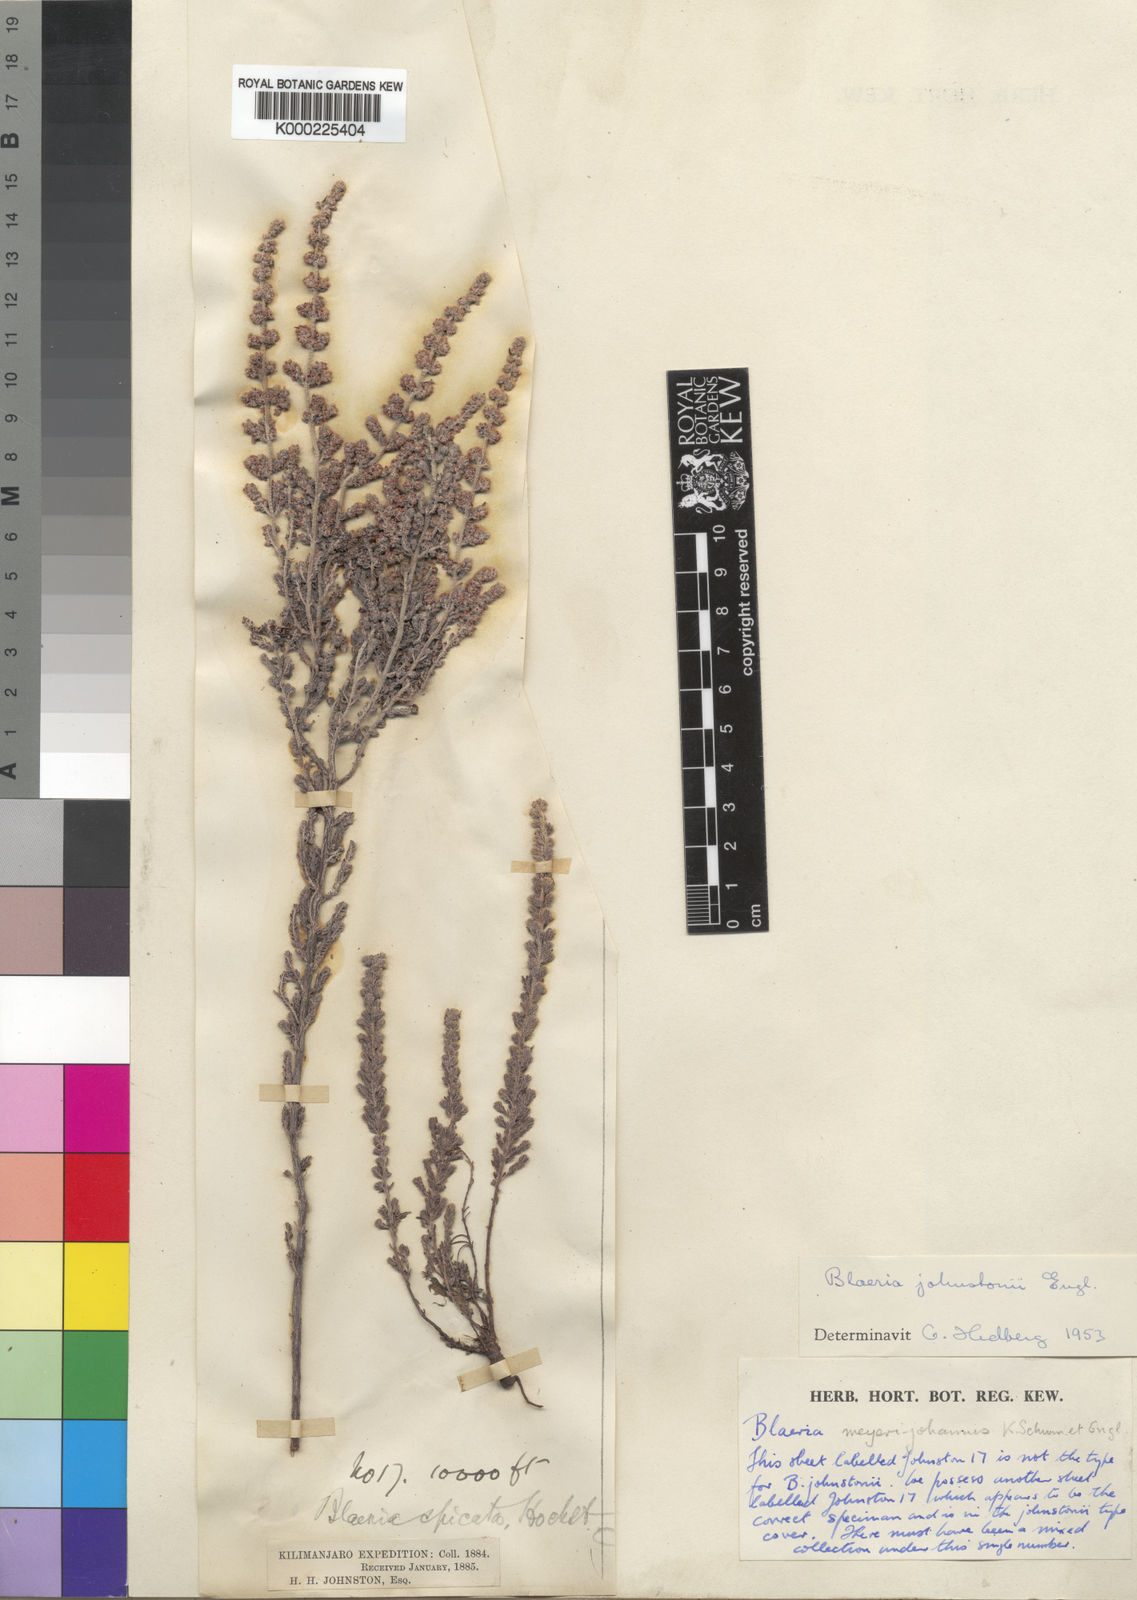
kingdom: Plantae
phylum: Tracheophyta
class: Magnoliopsida
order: Ericales
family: Ericaceae
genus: Erica
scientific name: Erica silvatica
